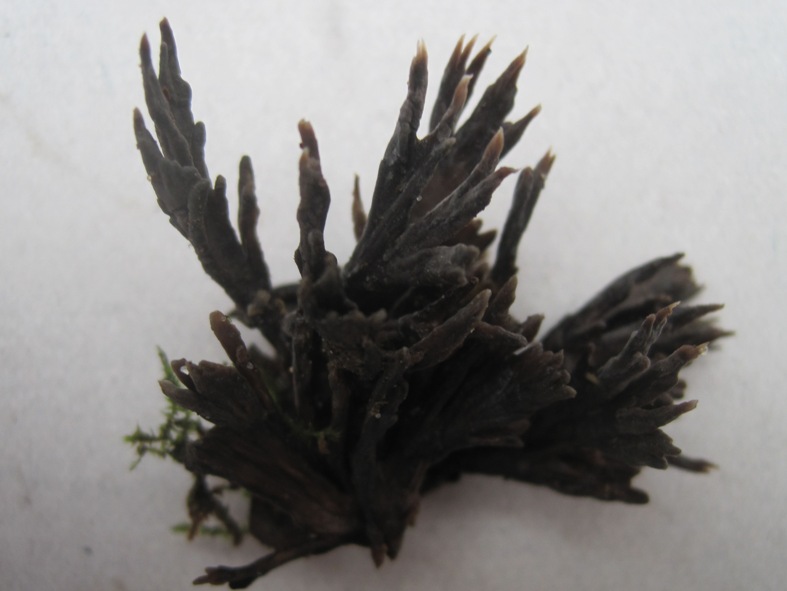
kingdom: Fungi
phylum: Basidiomycota
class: Agaricomycetes
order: Thelephorales
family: Thelephoraceae
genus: Thelephora
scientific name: Thelephora penicillata
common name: fladtrådt frynsesvamp
